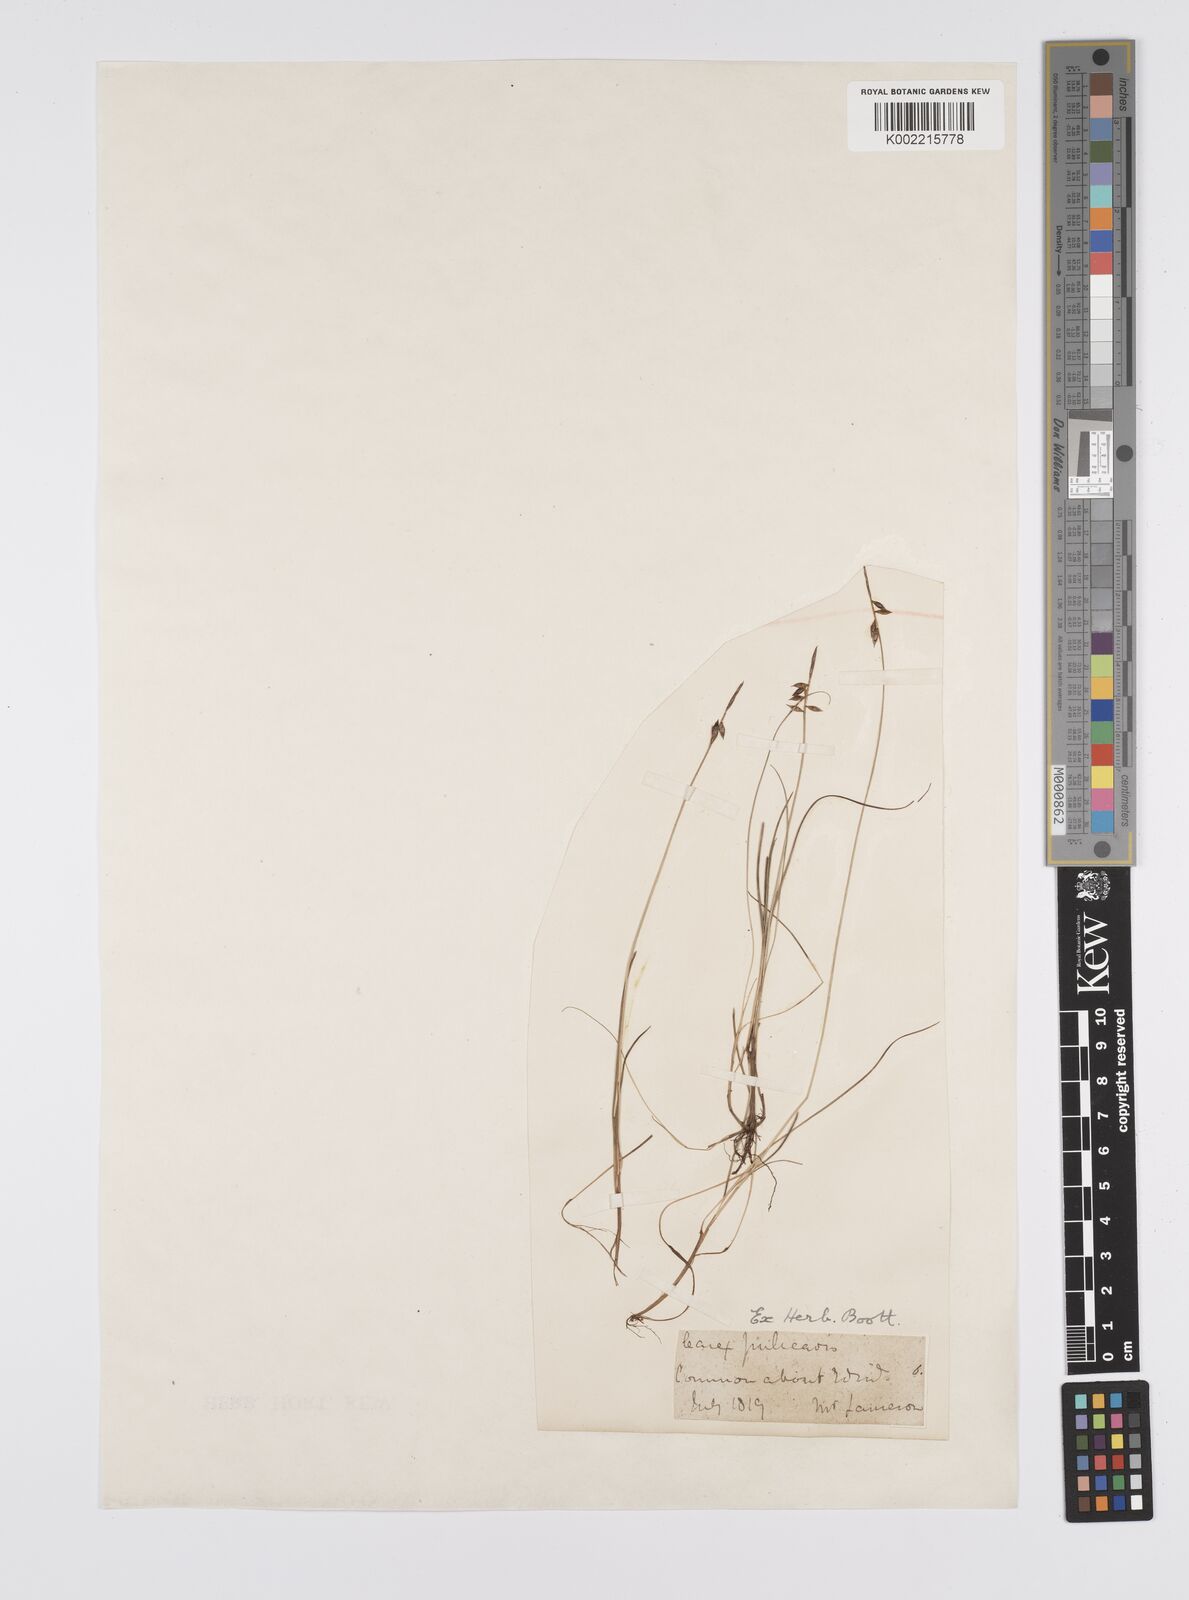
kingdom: Plantae
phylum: Tracheophyta
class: Liliopsida
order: Poales
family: Cyperaceae
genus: Carex
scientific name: Carex
